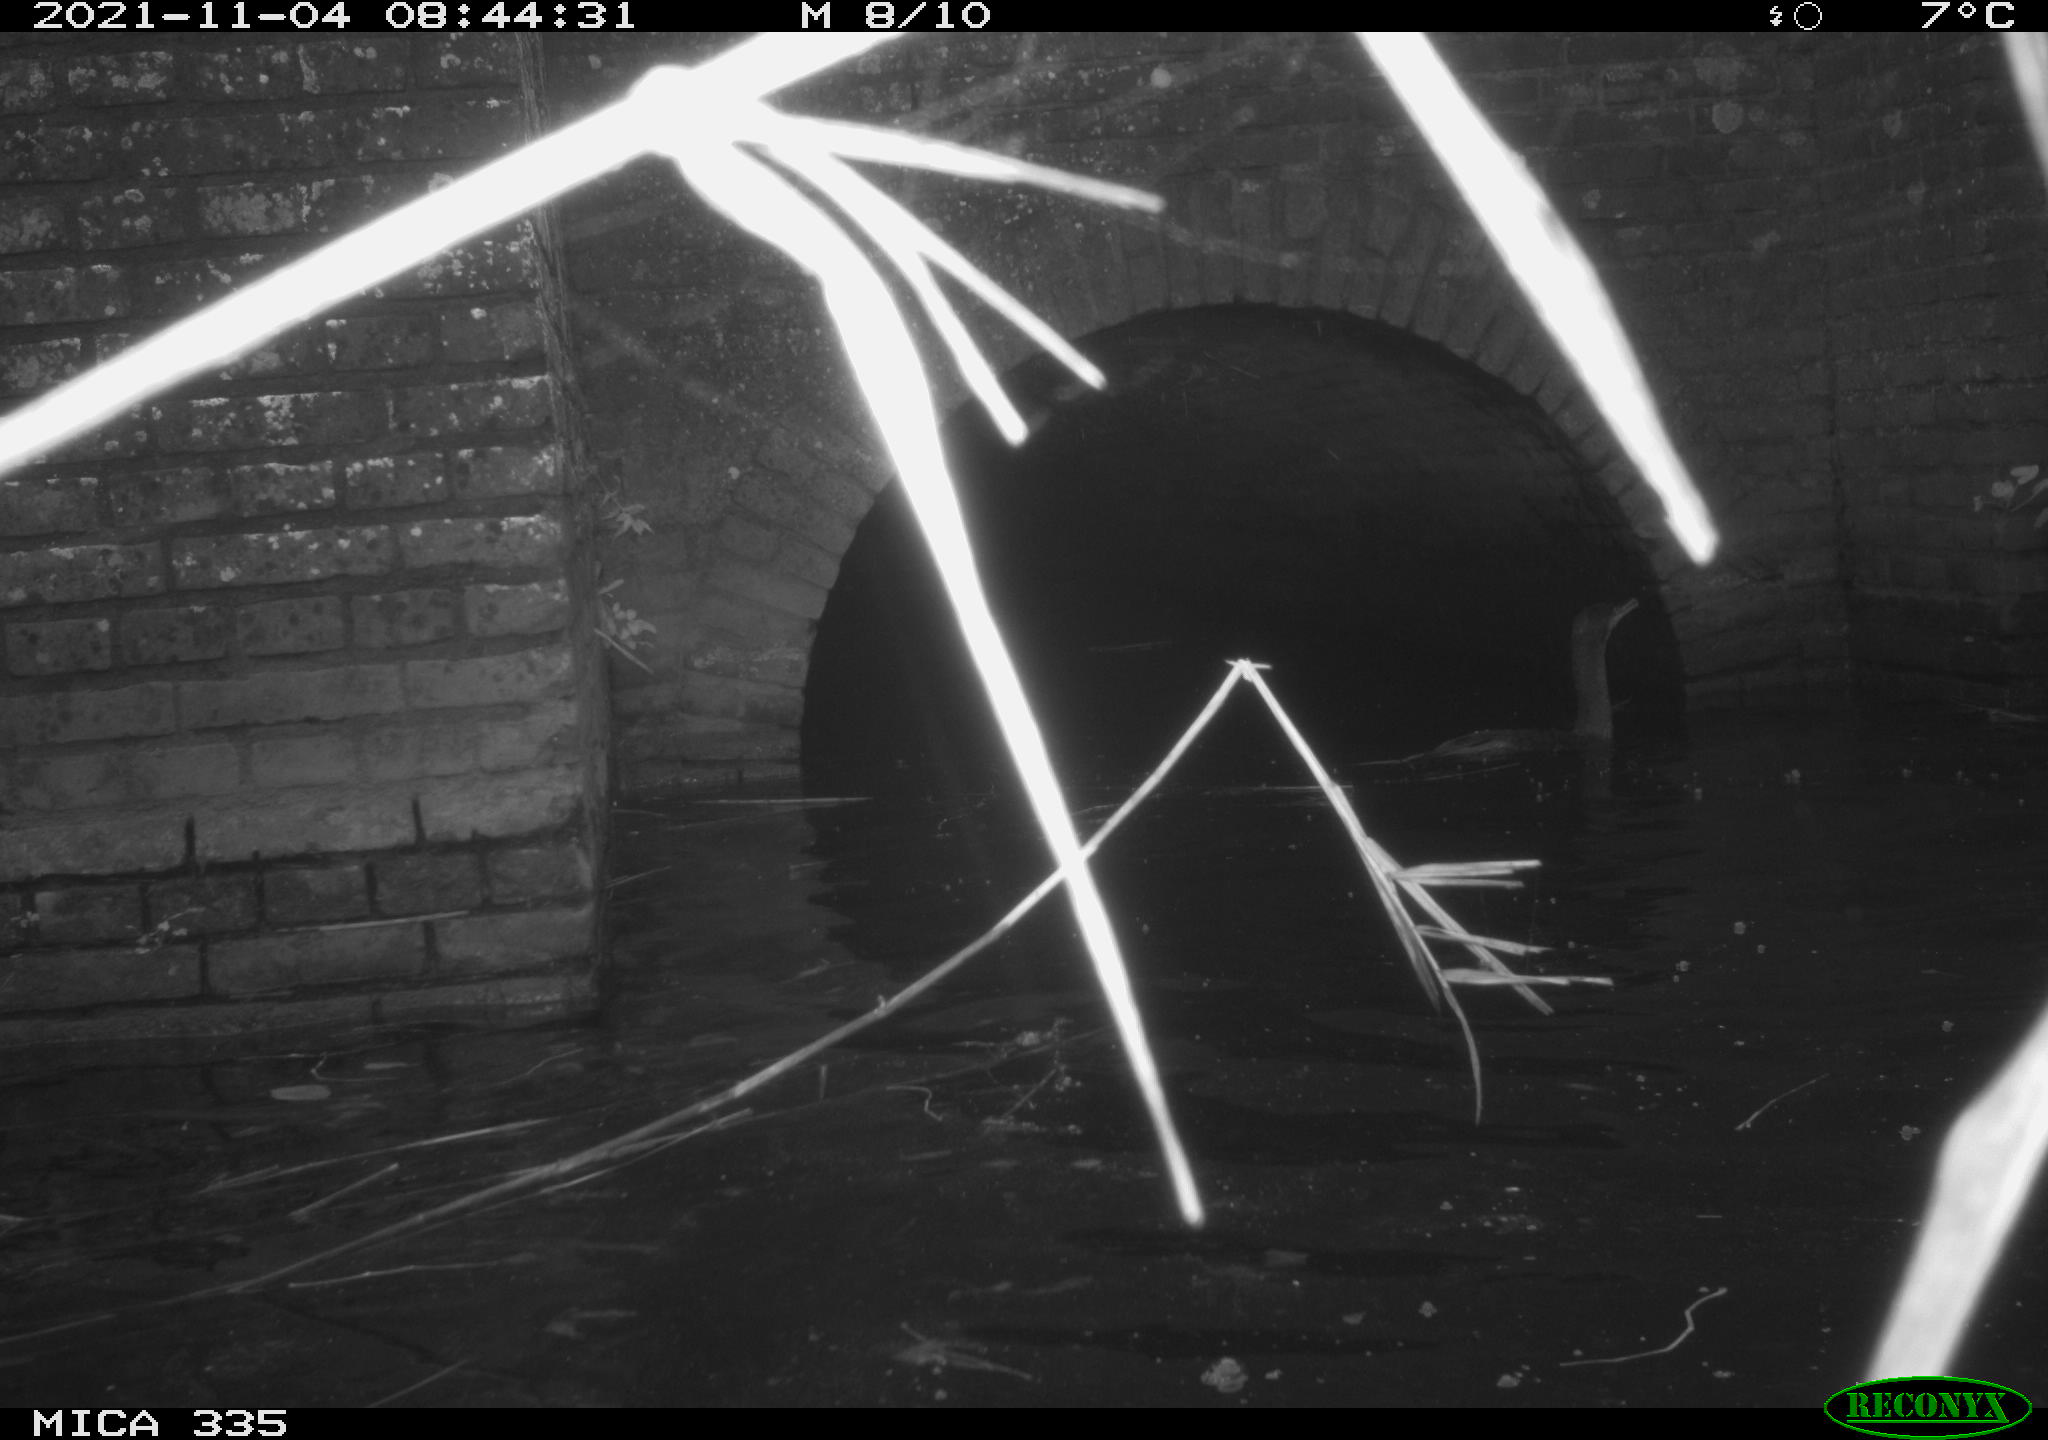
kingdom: Animalia
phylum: Chordata
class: Aves
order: Suliformes
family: Phalacrocoracidae
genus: Phalacrocorax
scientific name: Phalacrocorax carbo
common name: Great cormorant
